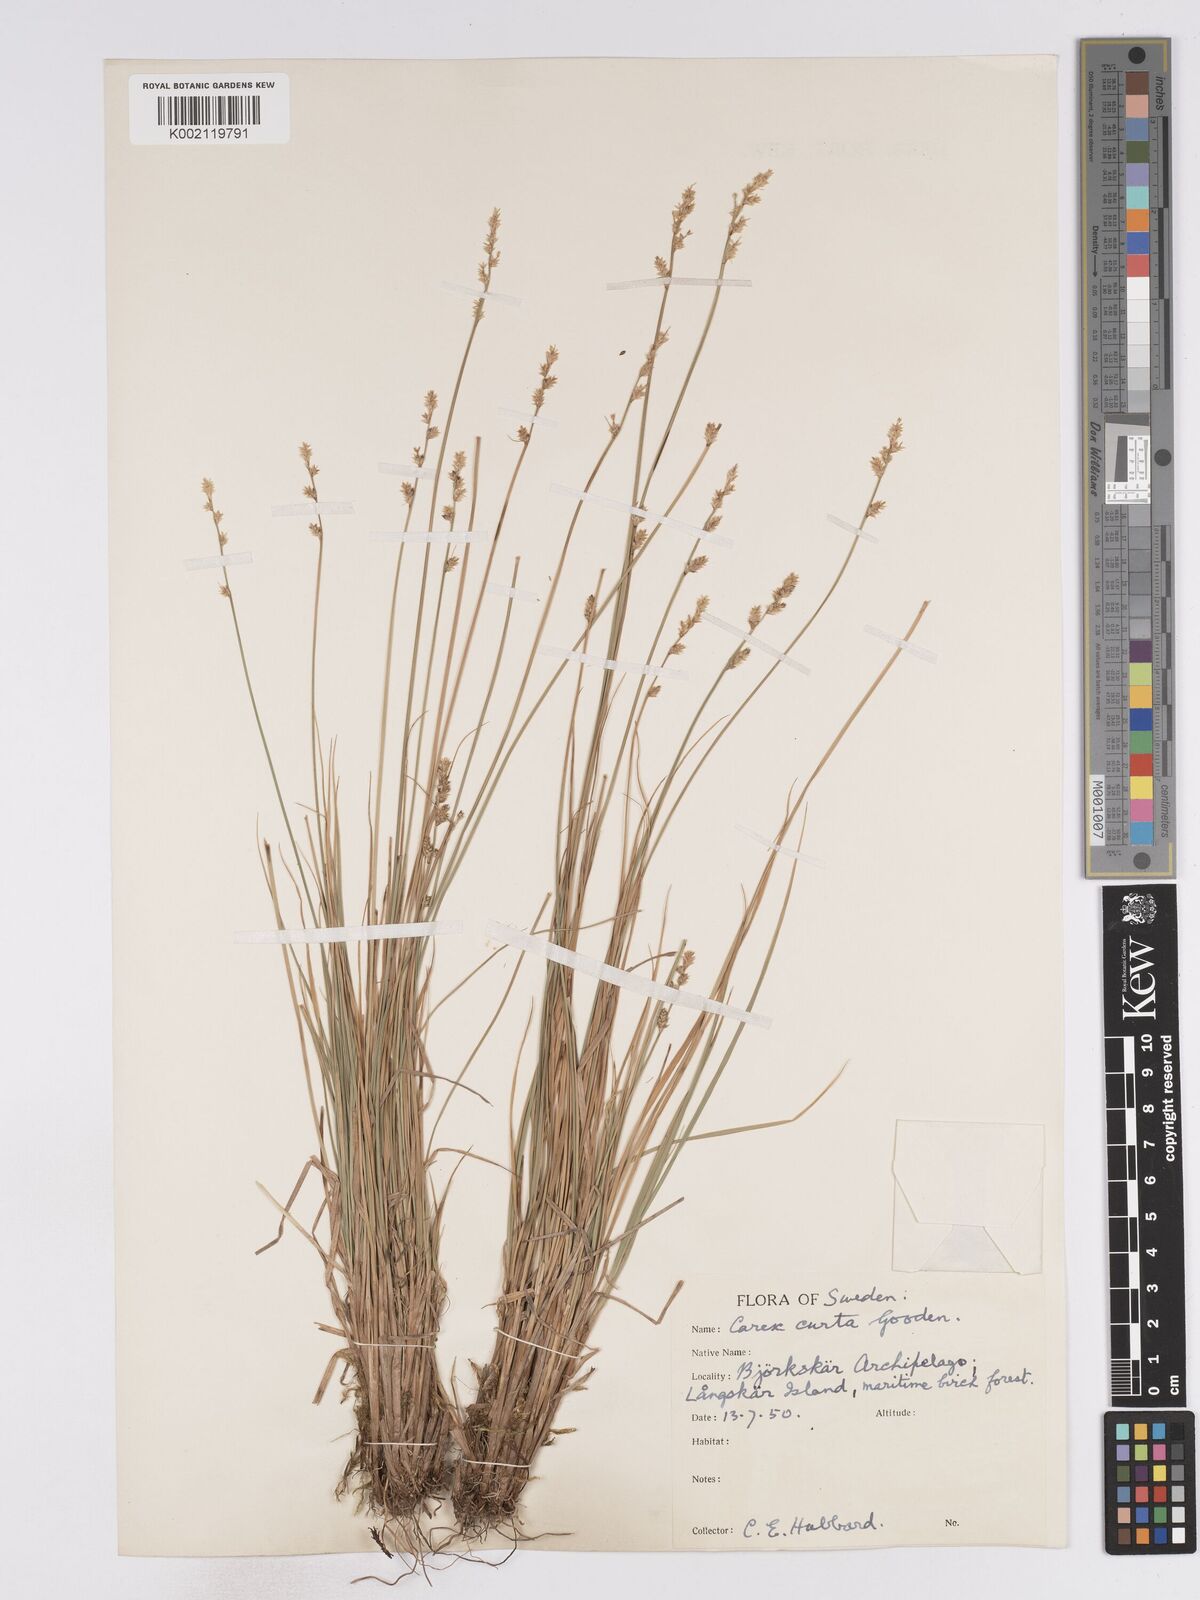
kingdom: Plantae
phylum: Tracheophyta
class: Liliopsida
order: Poales
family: Cyperaceae
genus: Carex
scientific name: Carex curta
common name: White sedge
